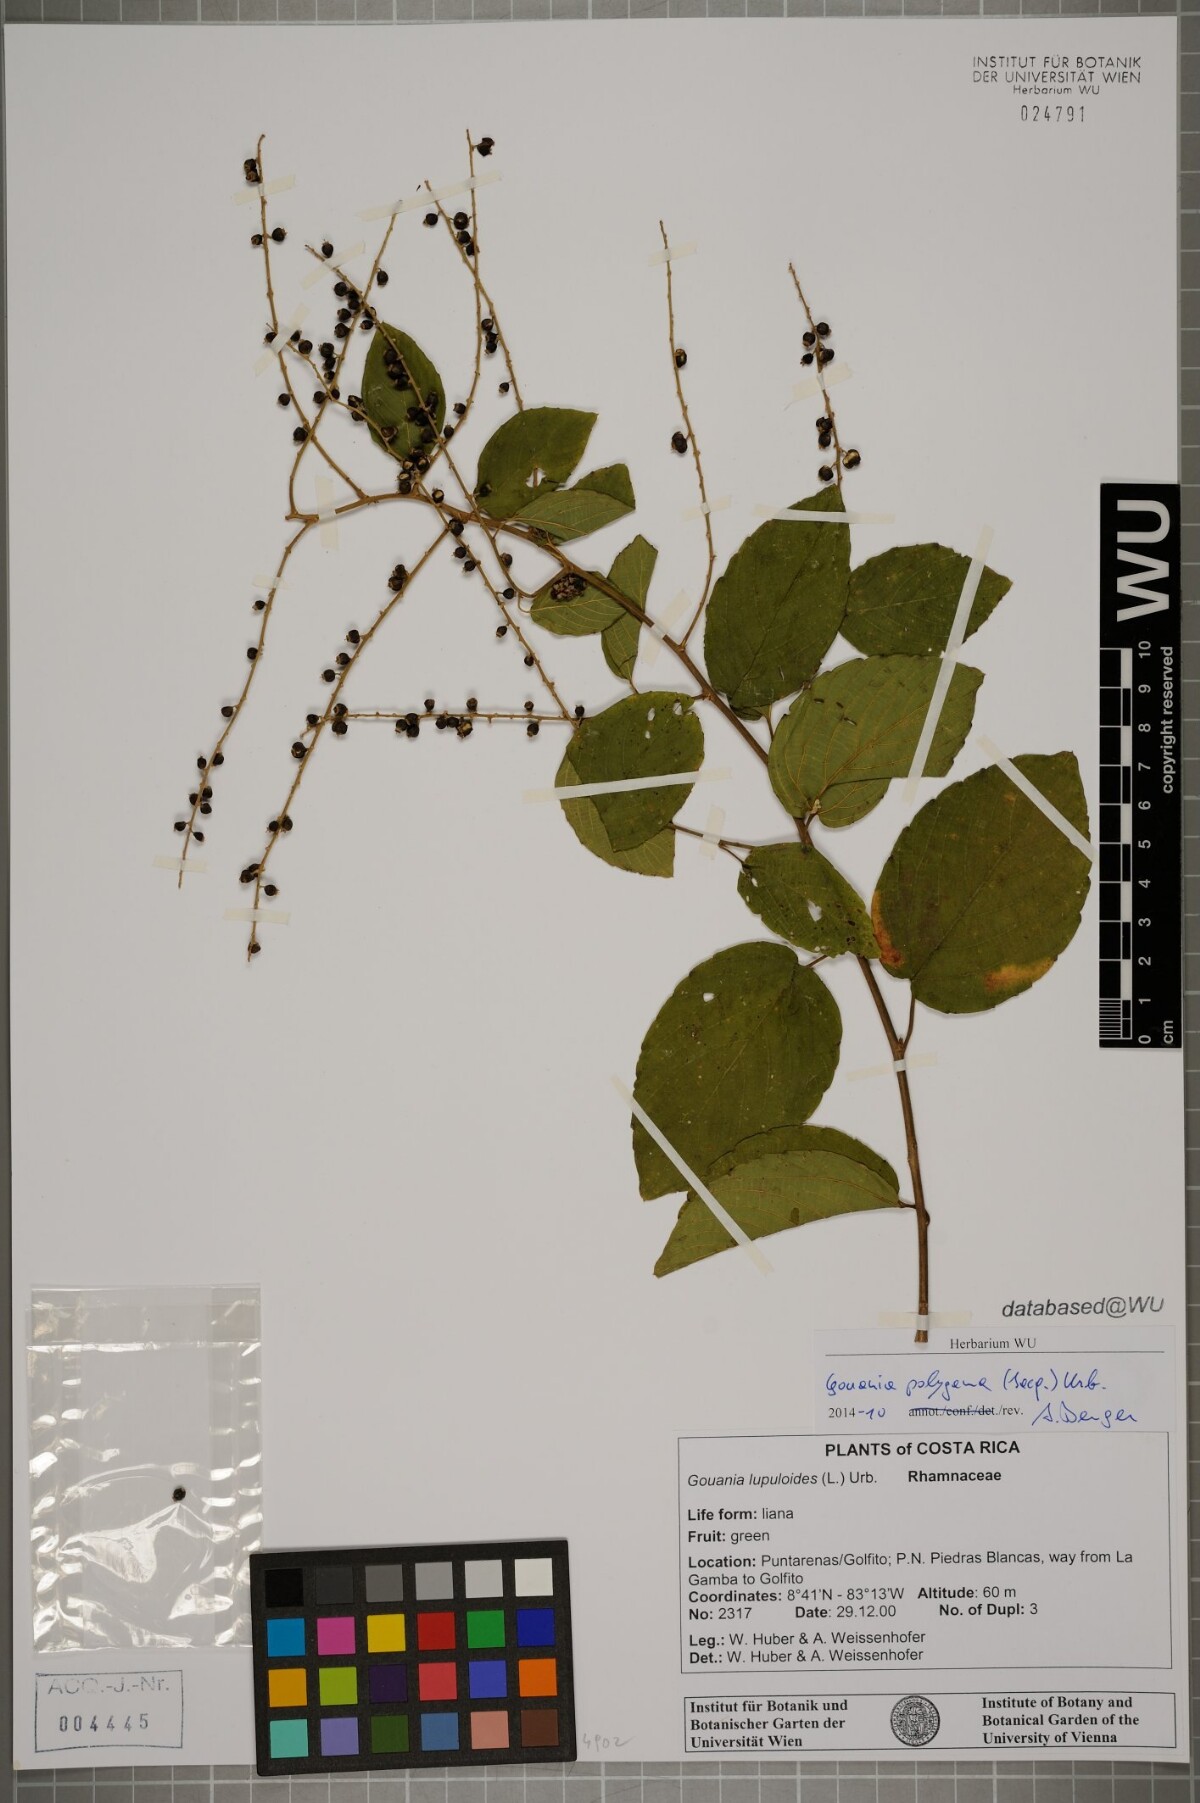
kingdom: Plantae
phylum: Tracheophyta
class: Magnoliopsida
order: Rosales
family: Rhamnaceae
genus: Gouania
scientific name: Gouania polygama
